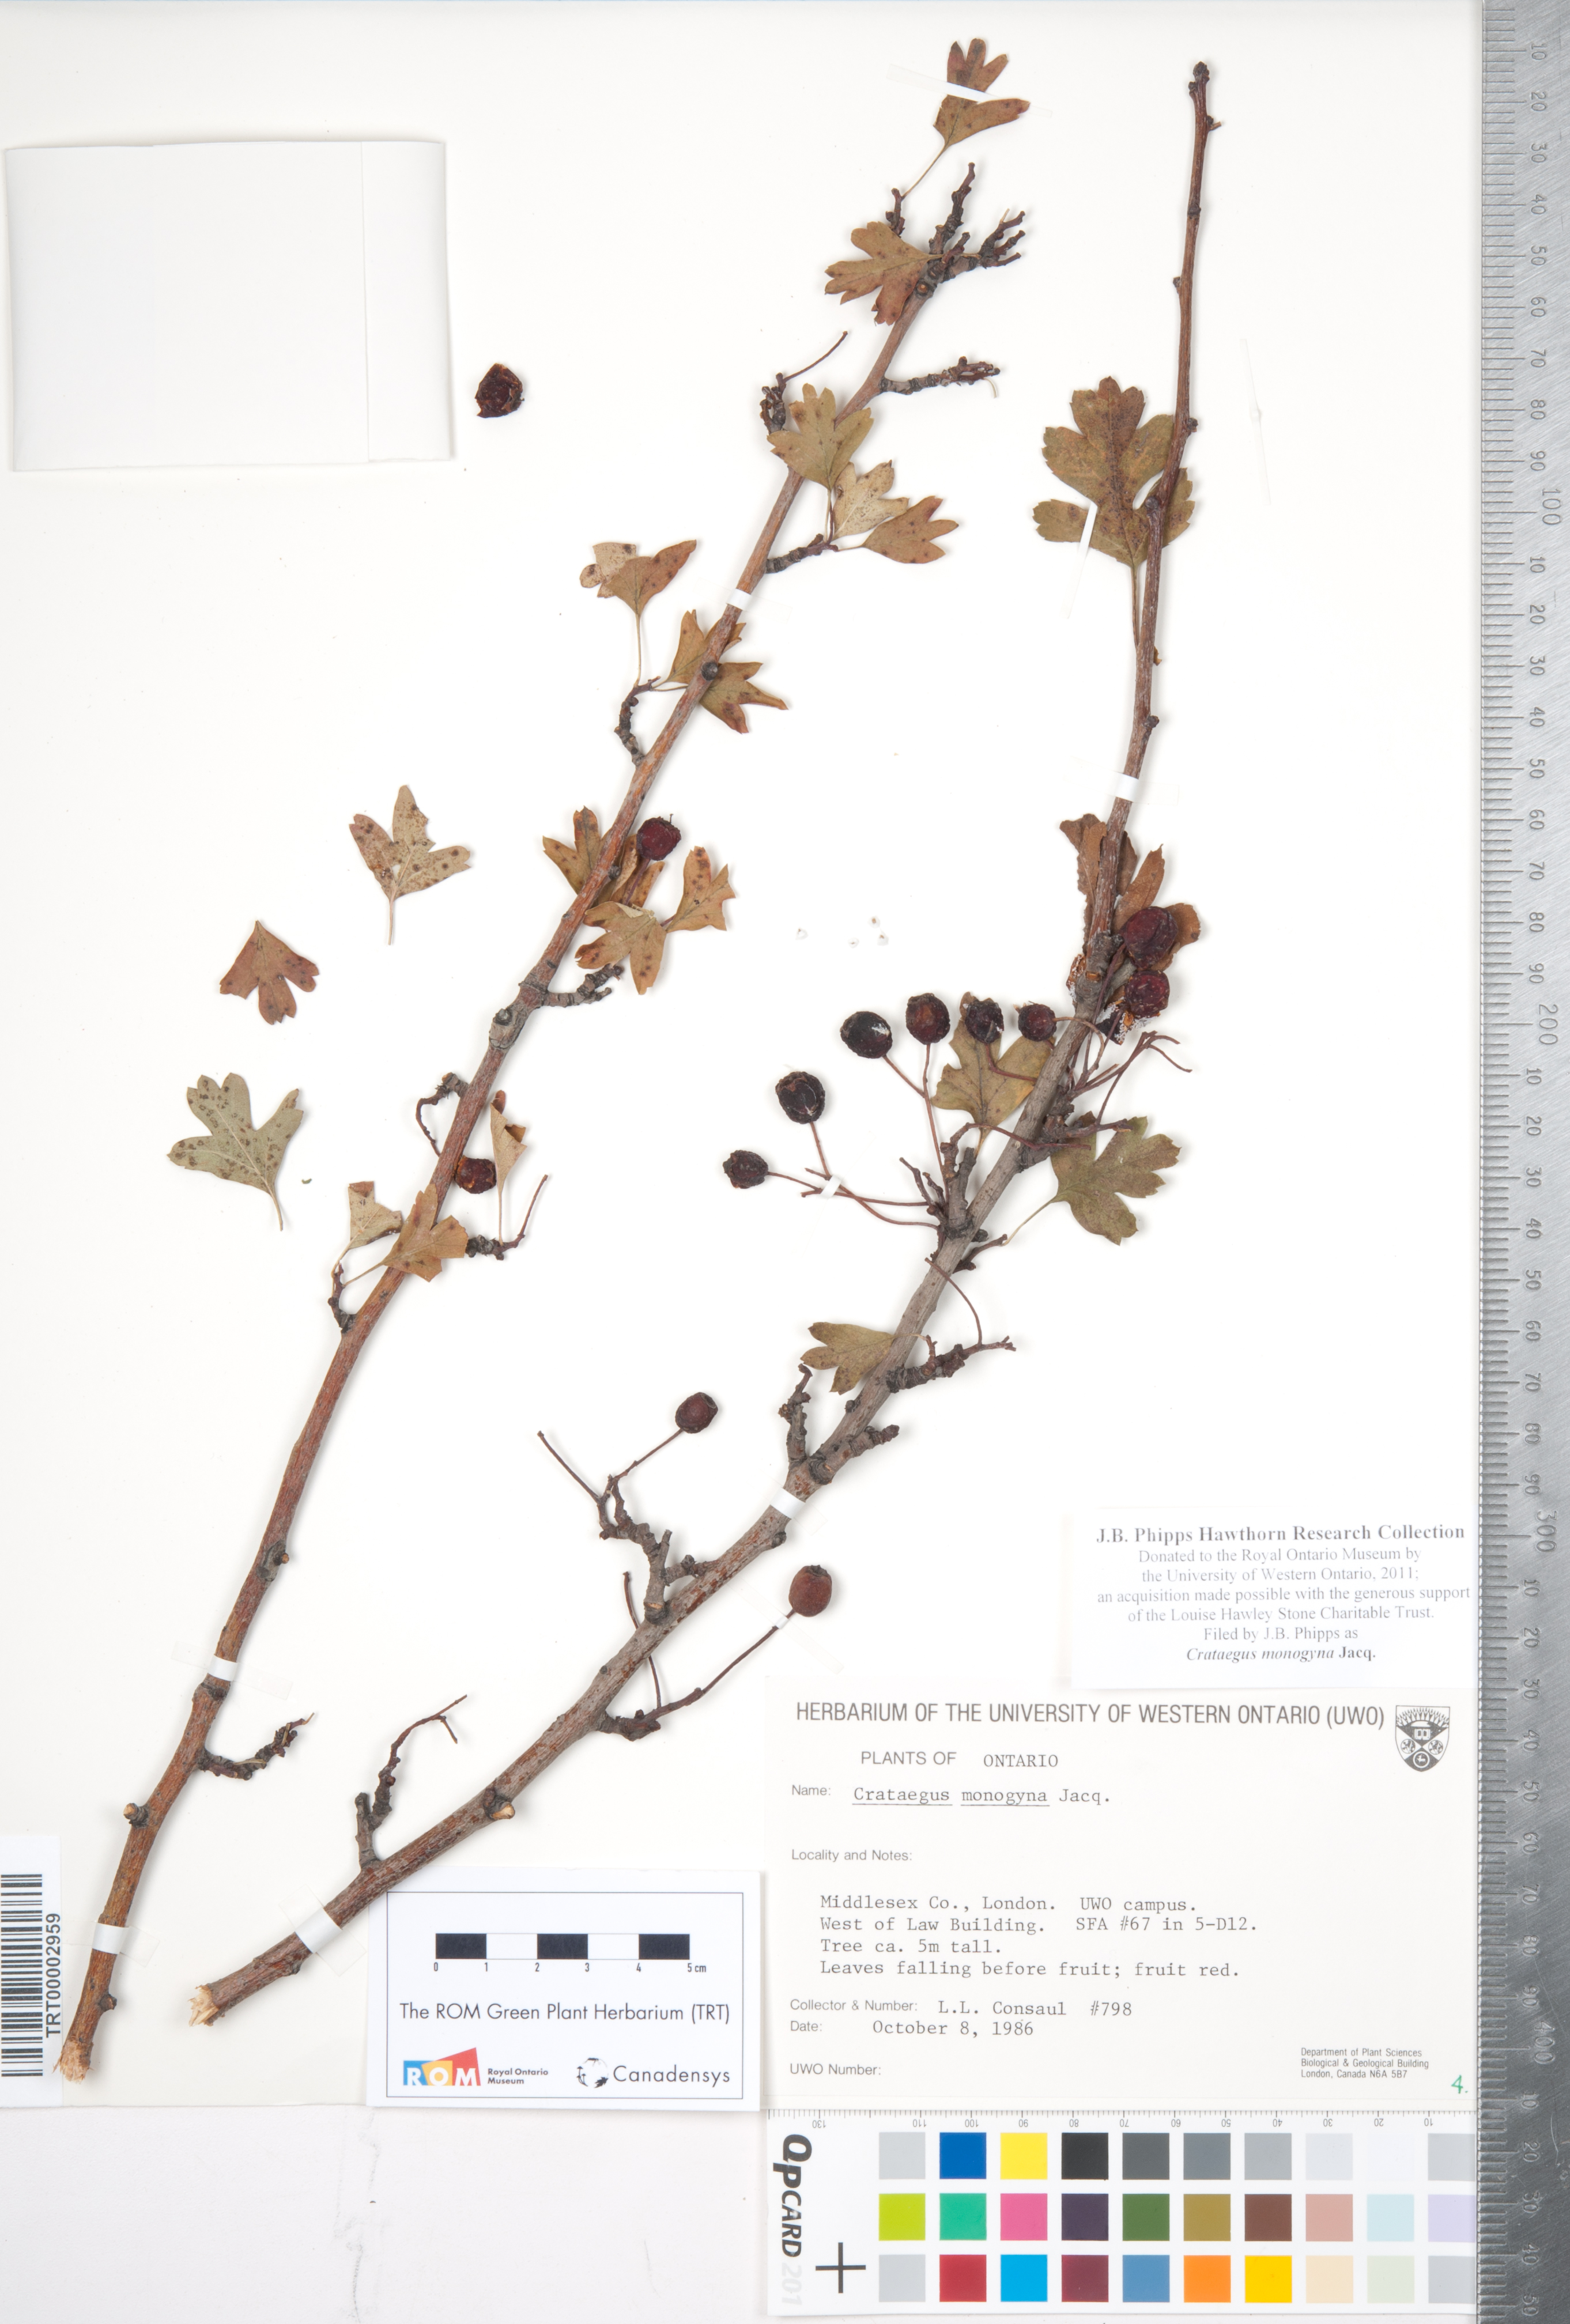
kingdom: Plantae
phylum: Tracheophyta
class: Magnoliopsida
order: Rosales
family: Rosaceae
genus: Crataegus
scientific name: Crataegus monogyna
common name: Hawthorn
